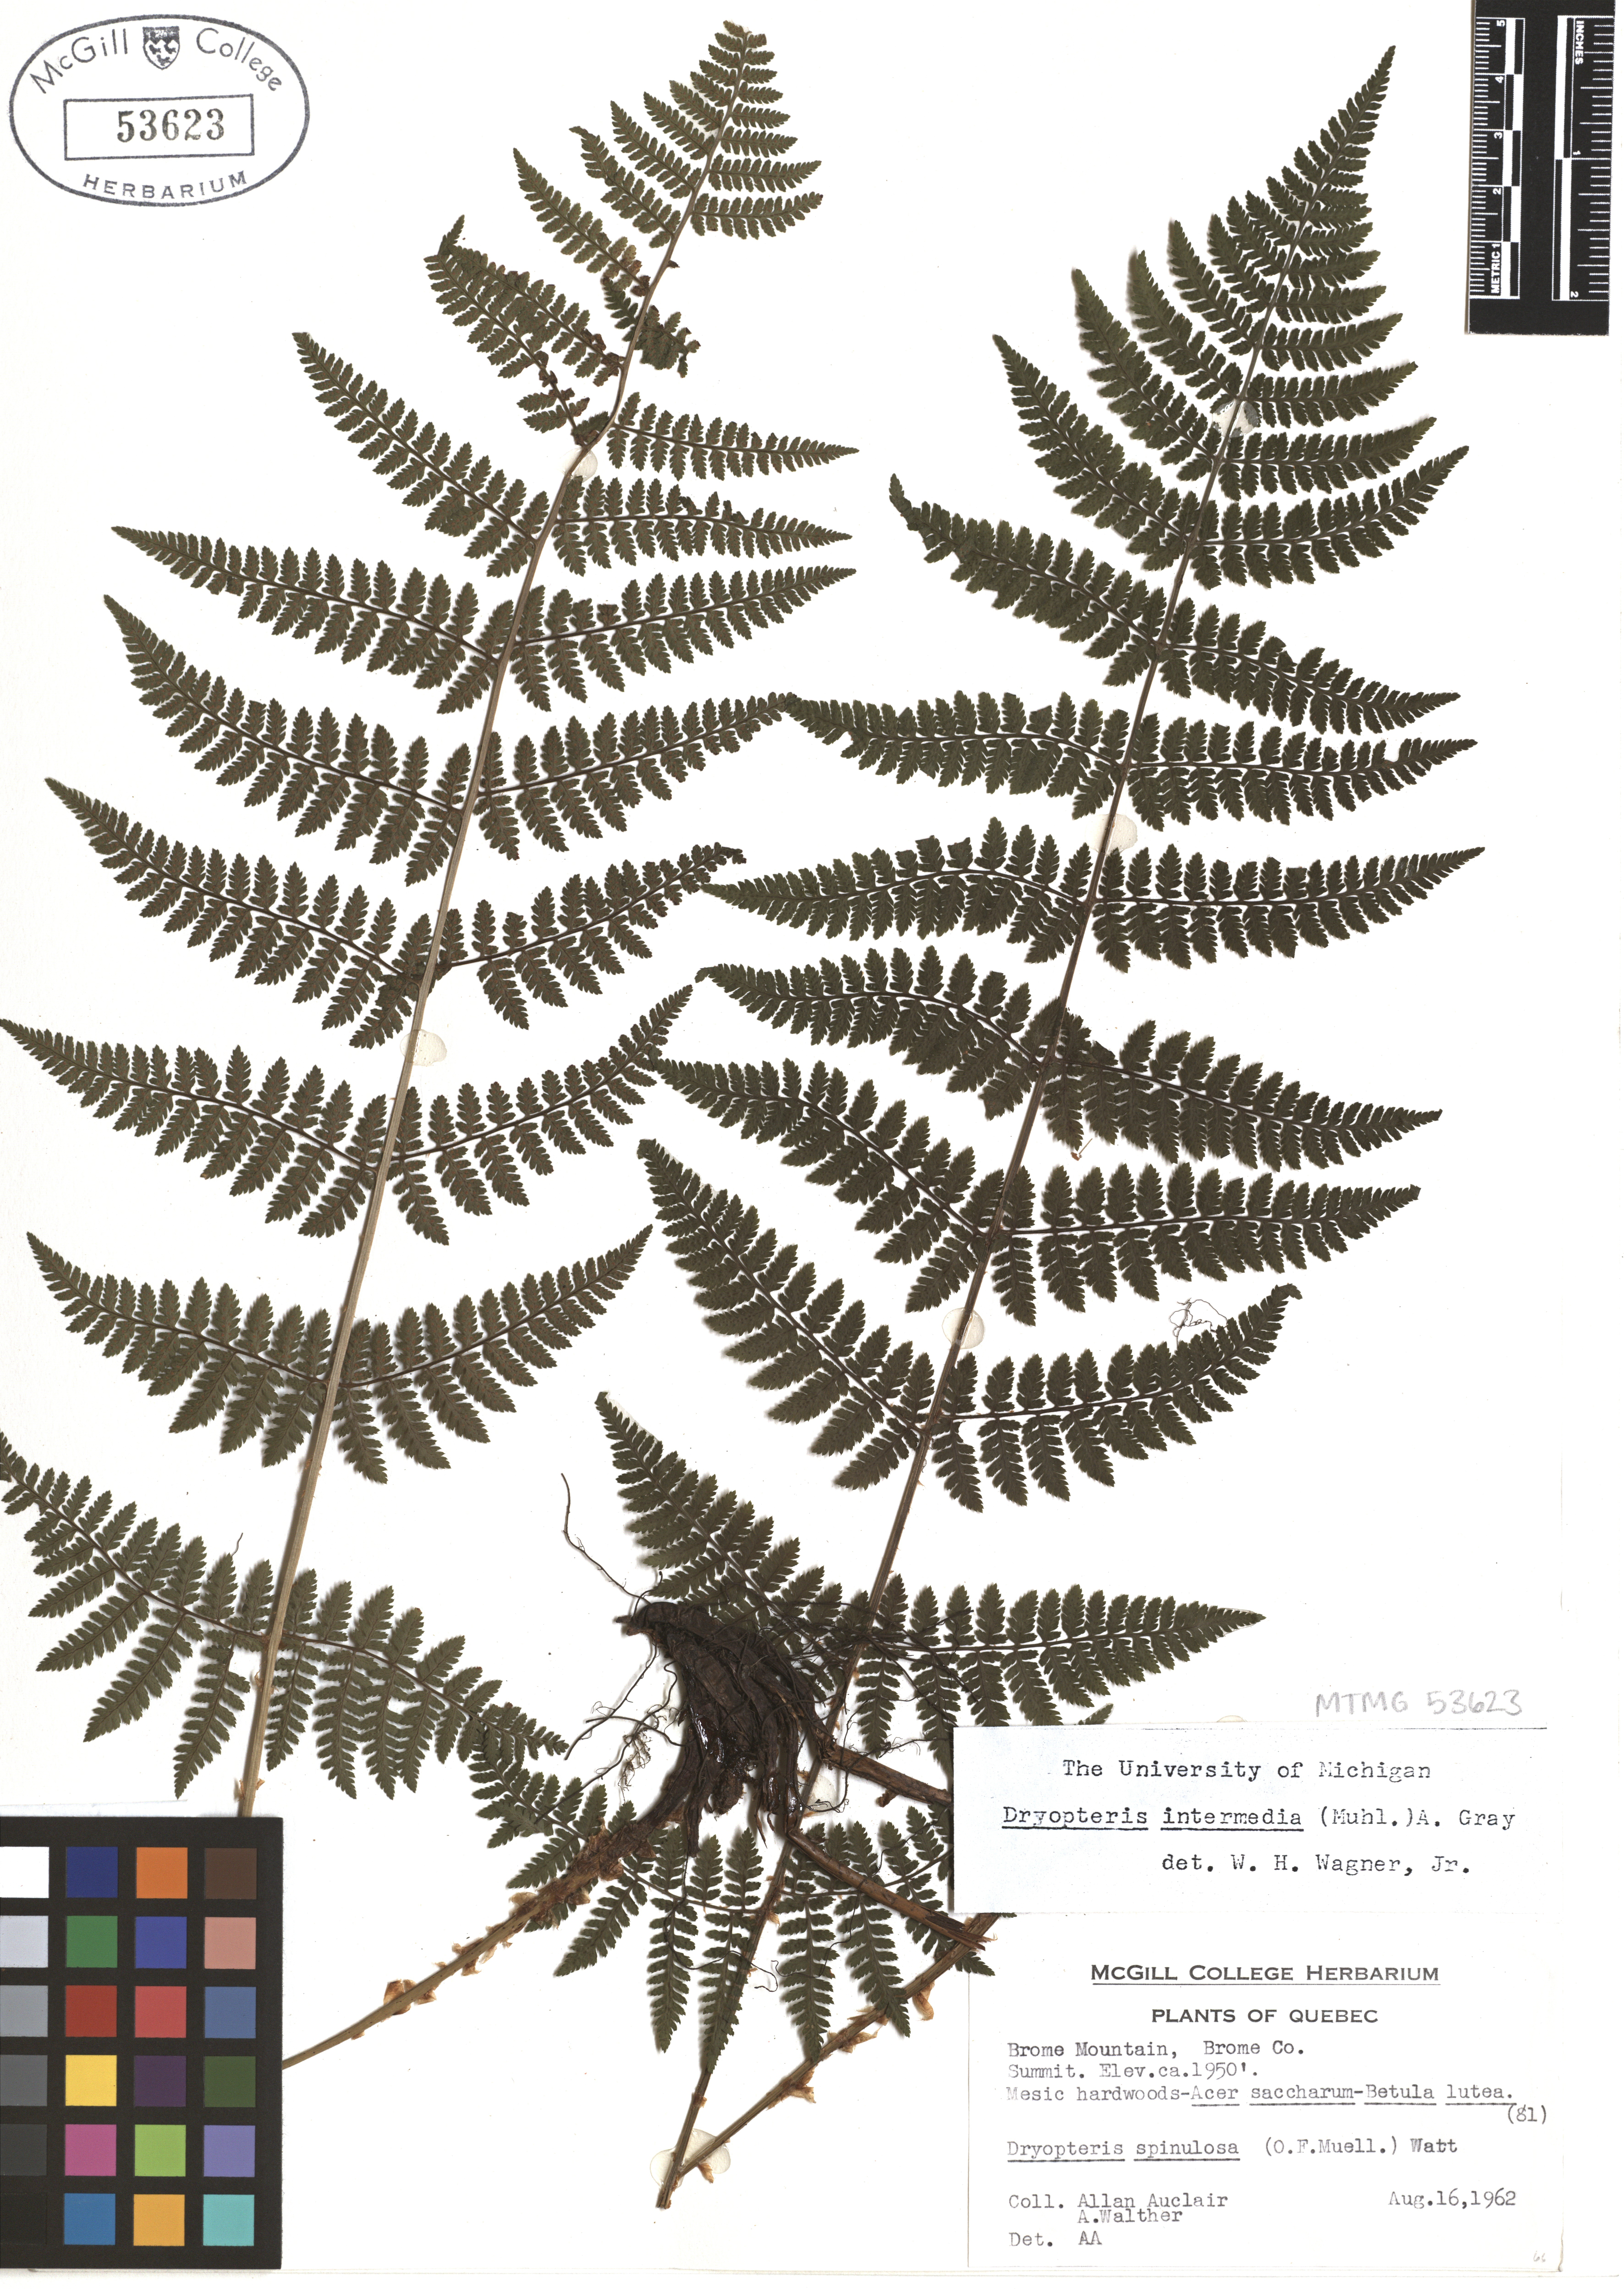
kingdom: Plantae
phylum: Tracheophyta
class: Polypodiopsida
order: Polypodiales
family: Dryopteridaceae
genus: Dryopteris
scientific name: Dryopteris intermedia
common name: Evergreen wood fern
